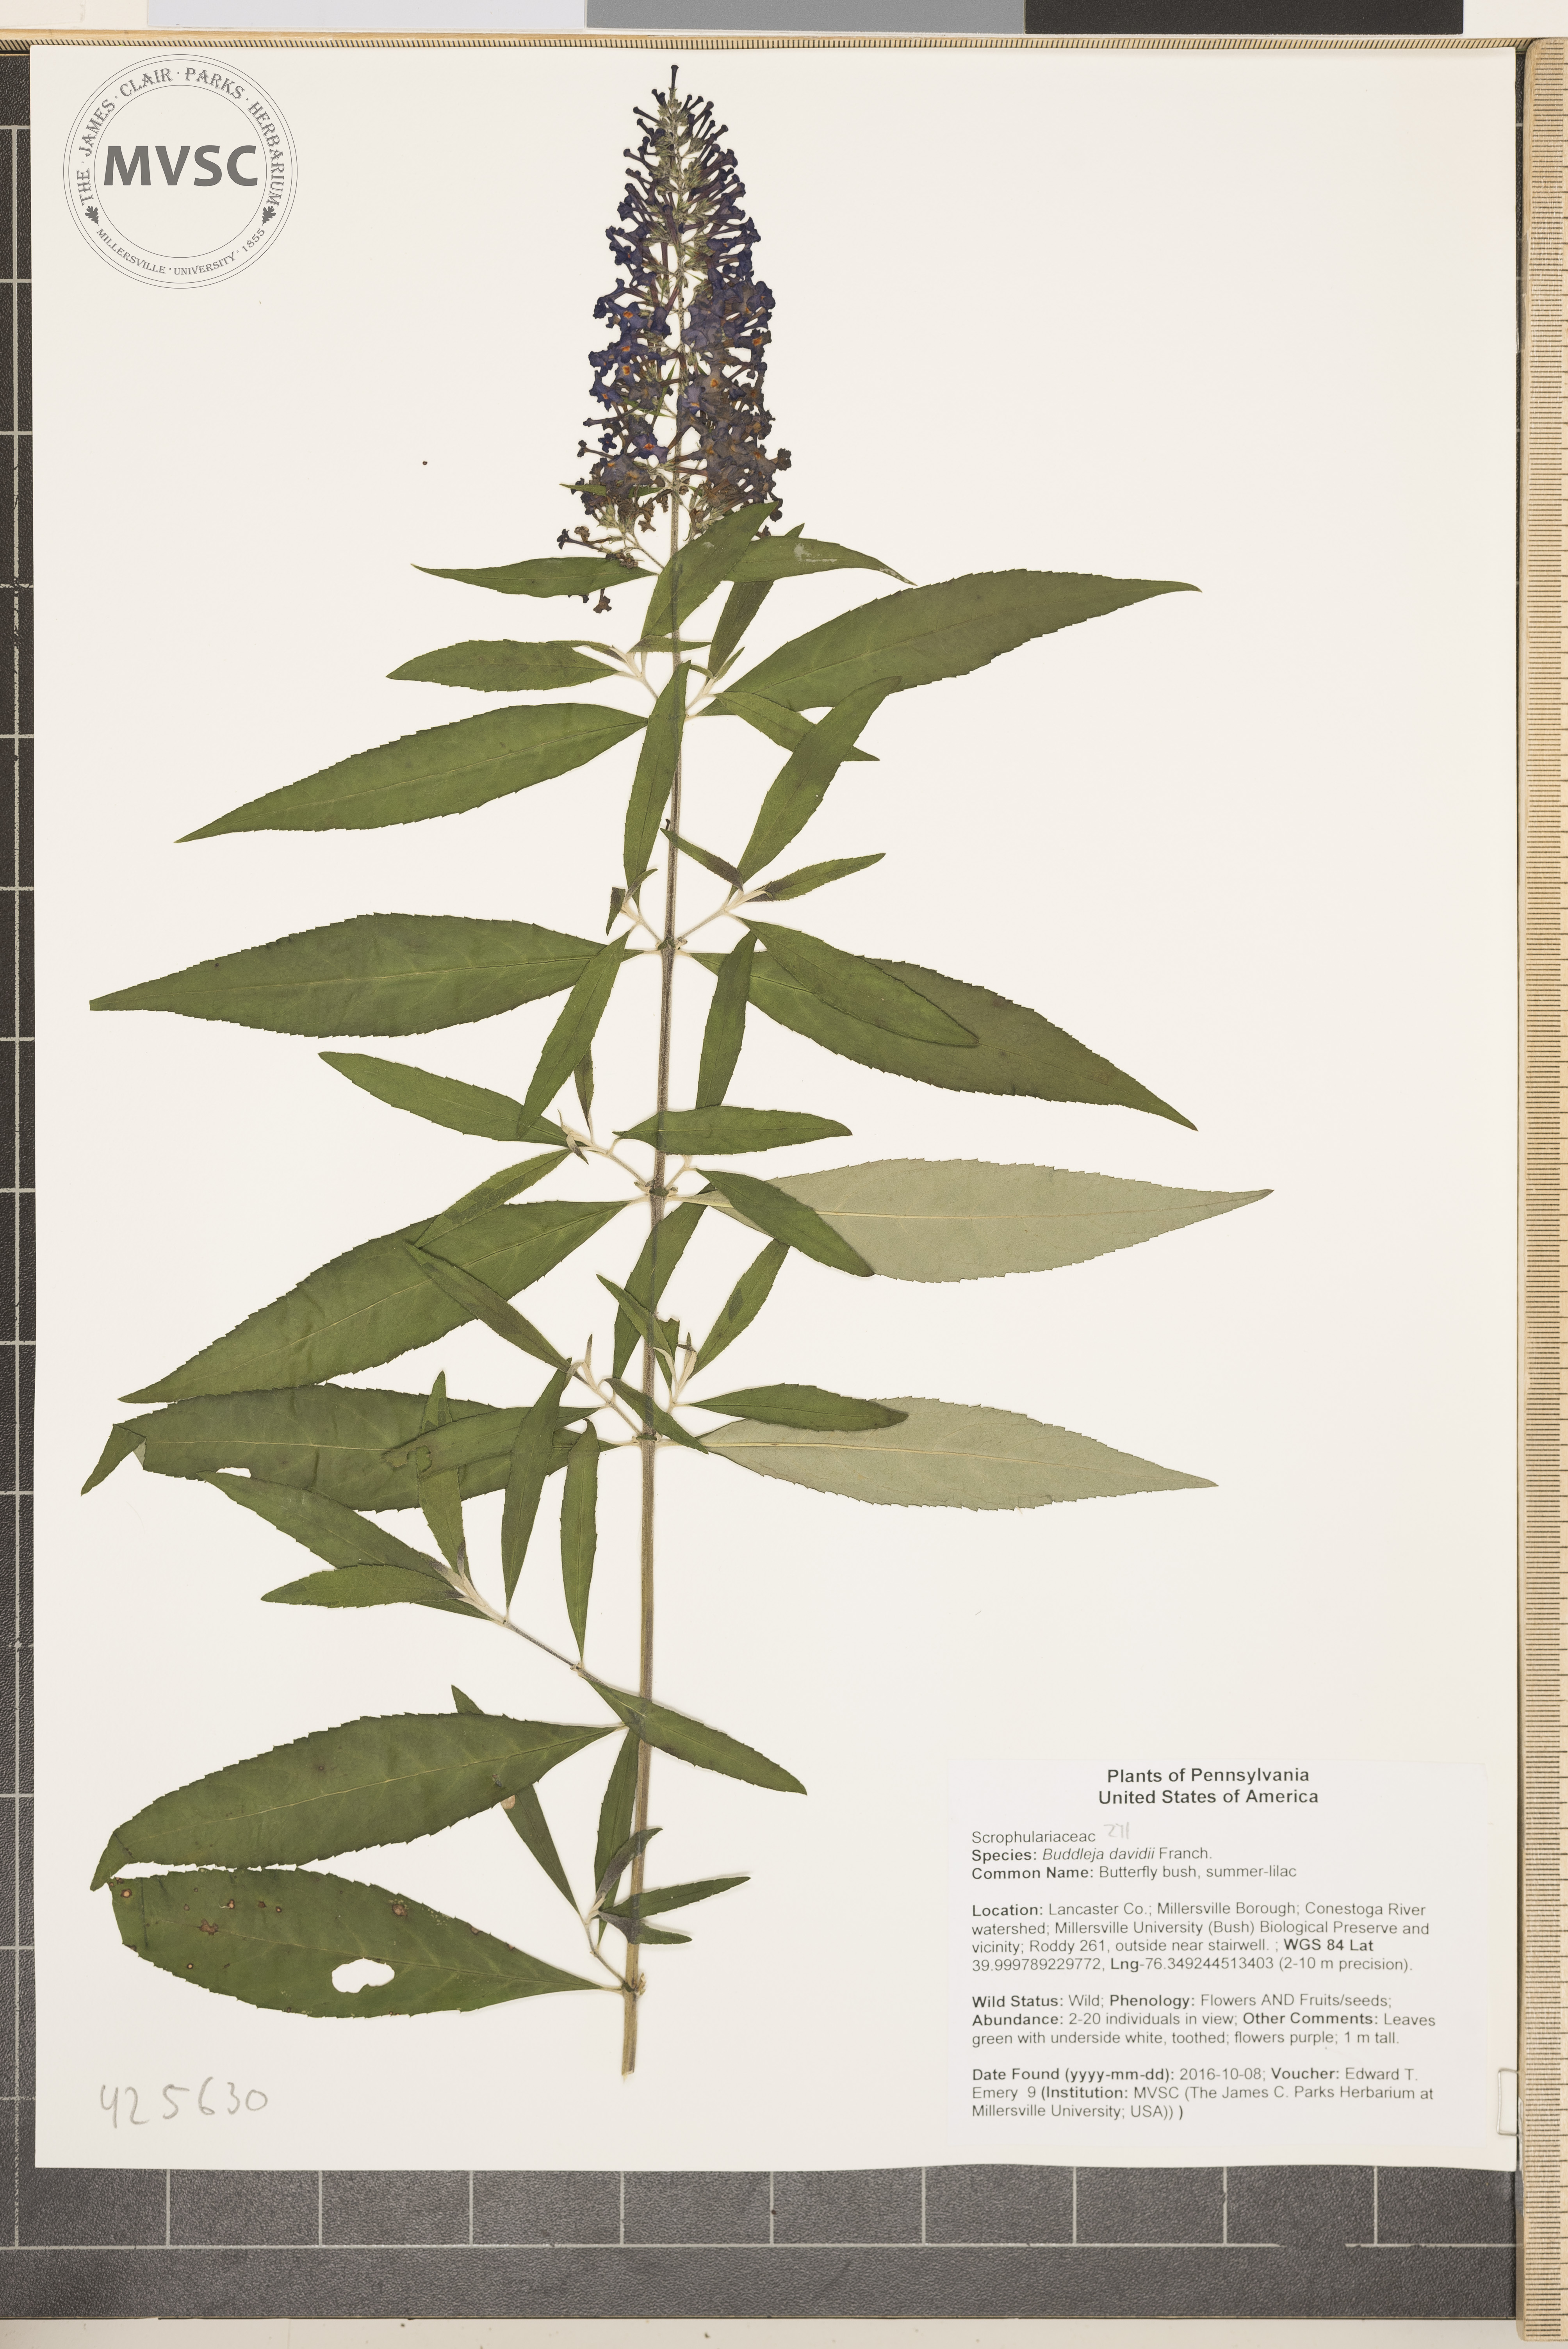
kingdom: Plantae
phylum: Tracheophyta
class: Magnoliopsida
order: Lamiales
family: Scrophulariaceae
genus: Buddleja
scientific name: Buddleja davidii
